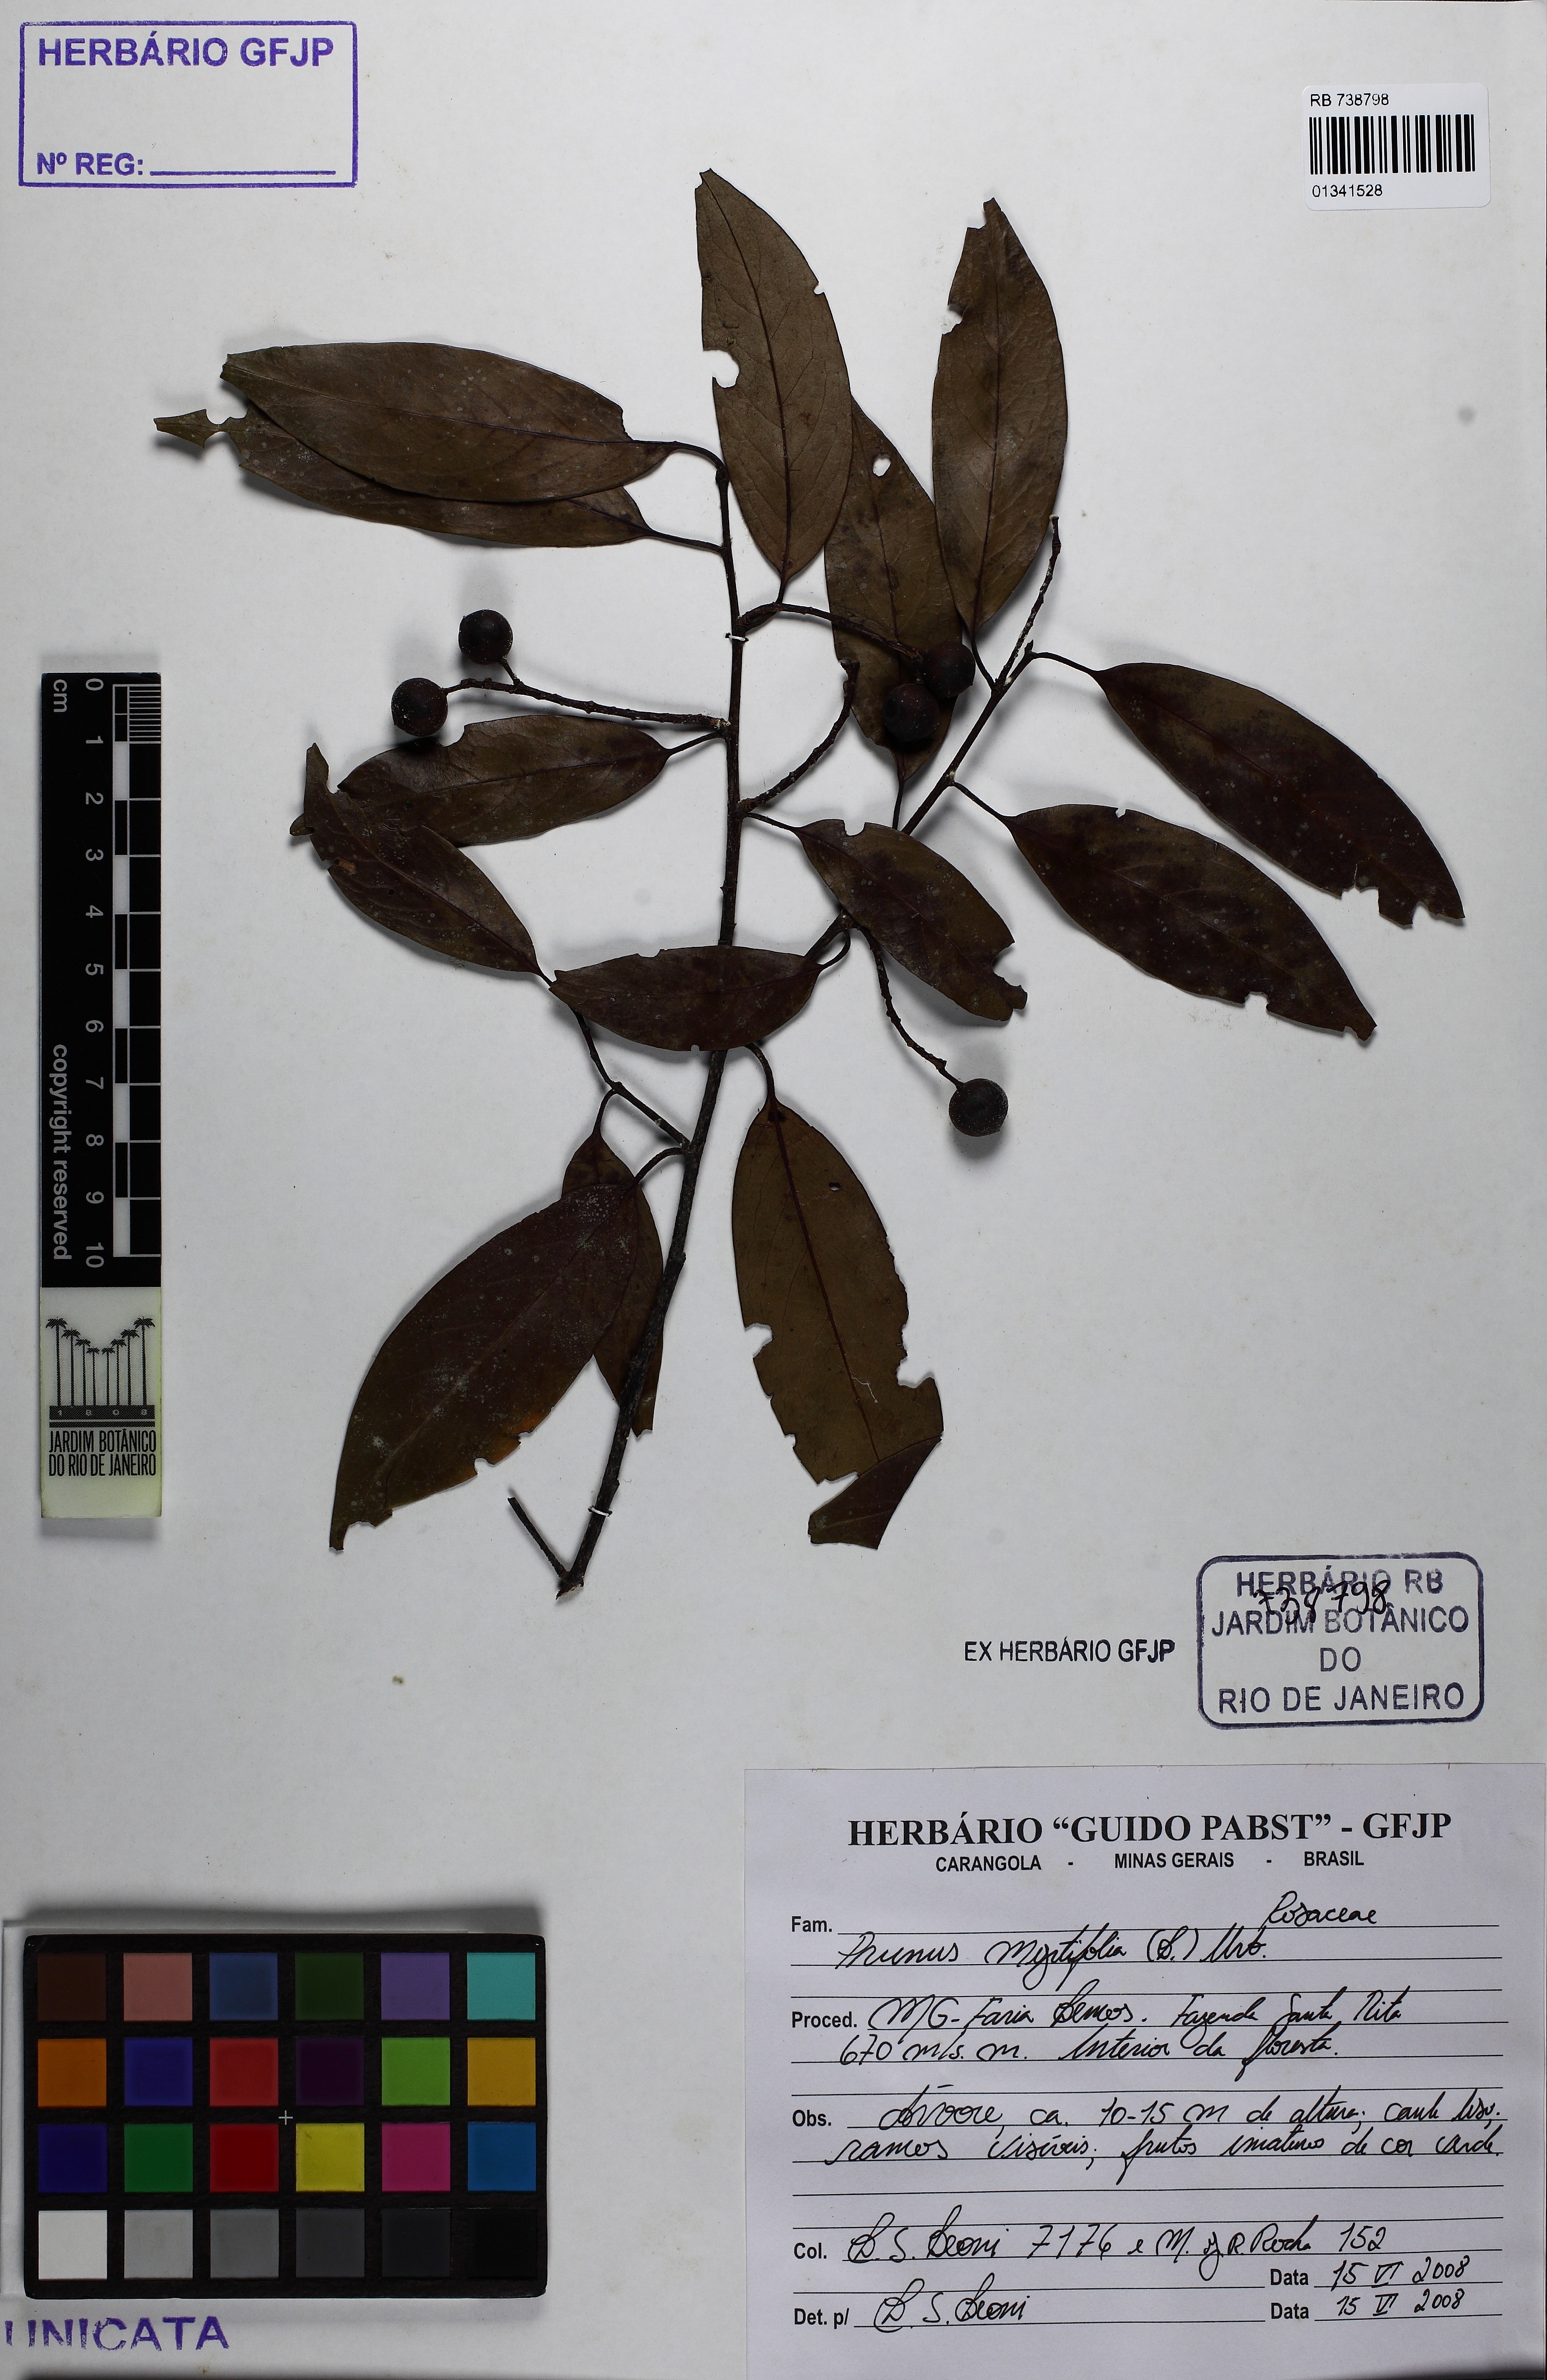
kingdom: Plantae
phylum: Tracheophyta
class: Magnoliopsida
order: Rosales
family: Rosaceae
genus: Prunus
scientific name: Prunus myrtifolia
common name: West indies cherry
